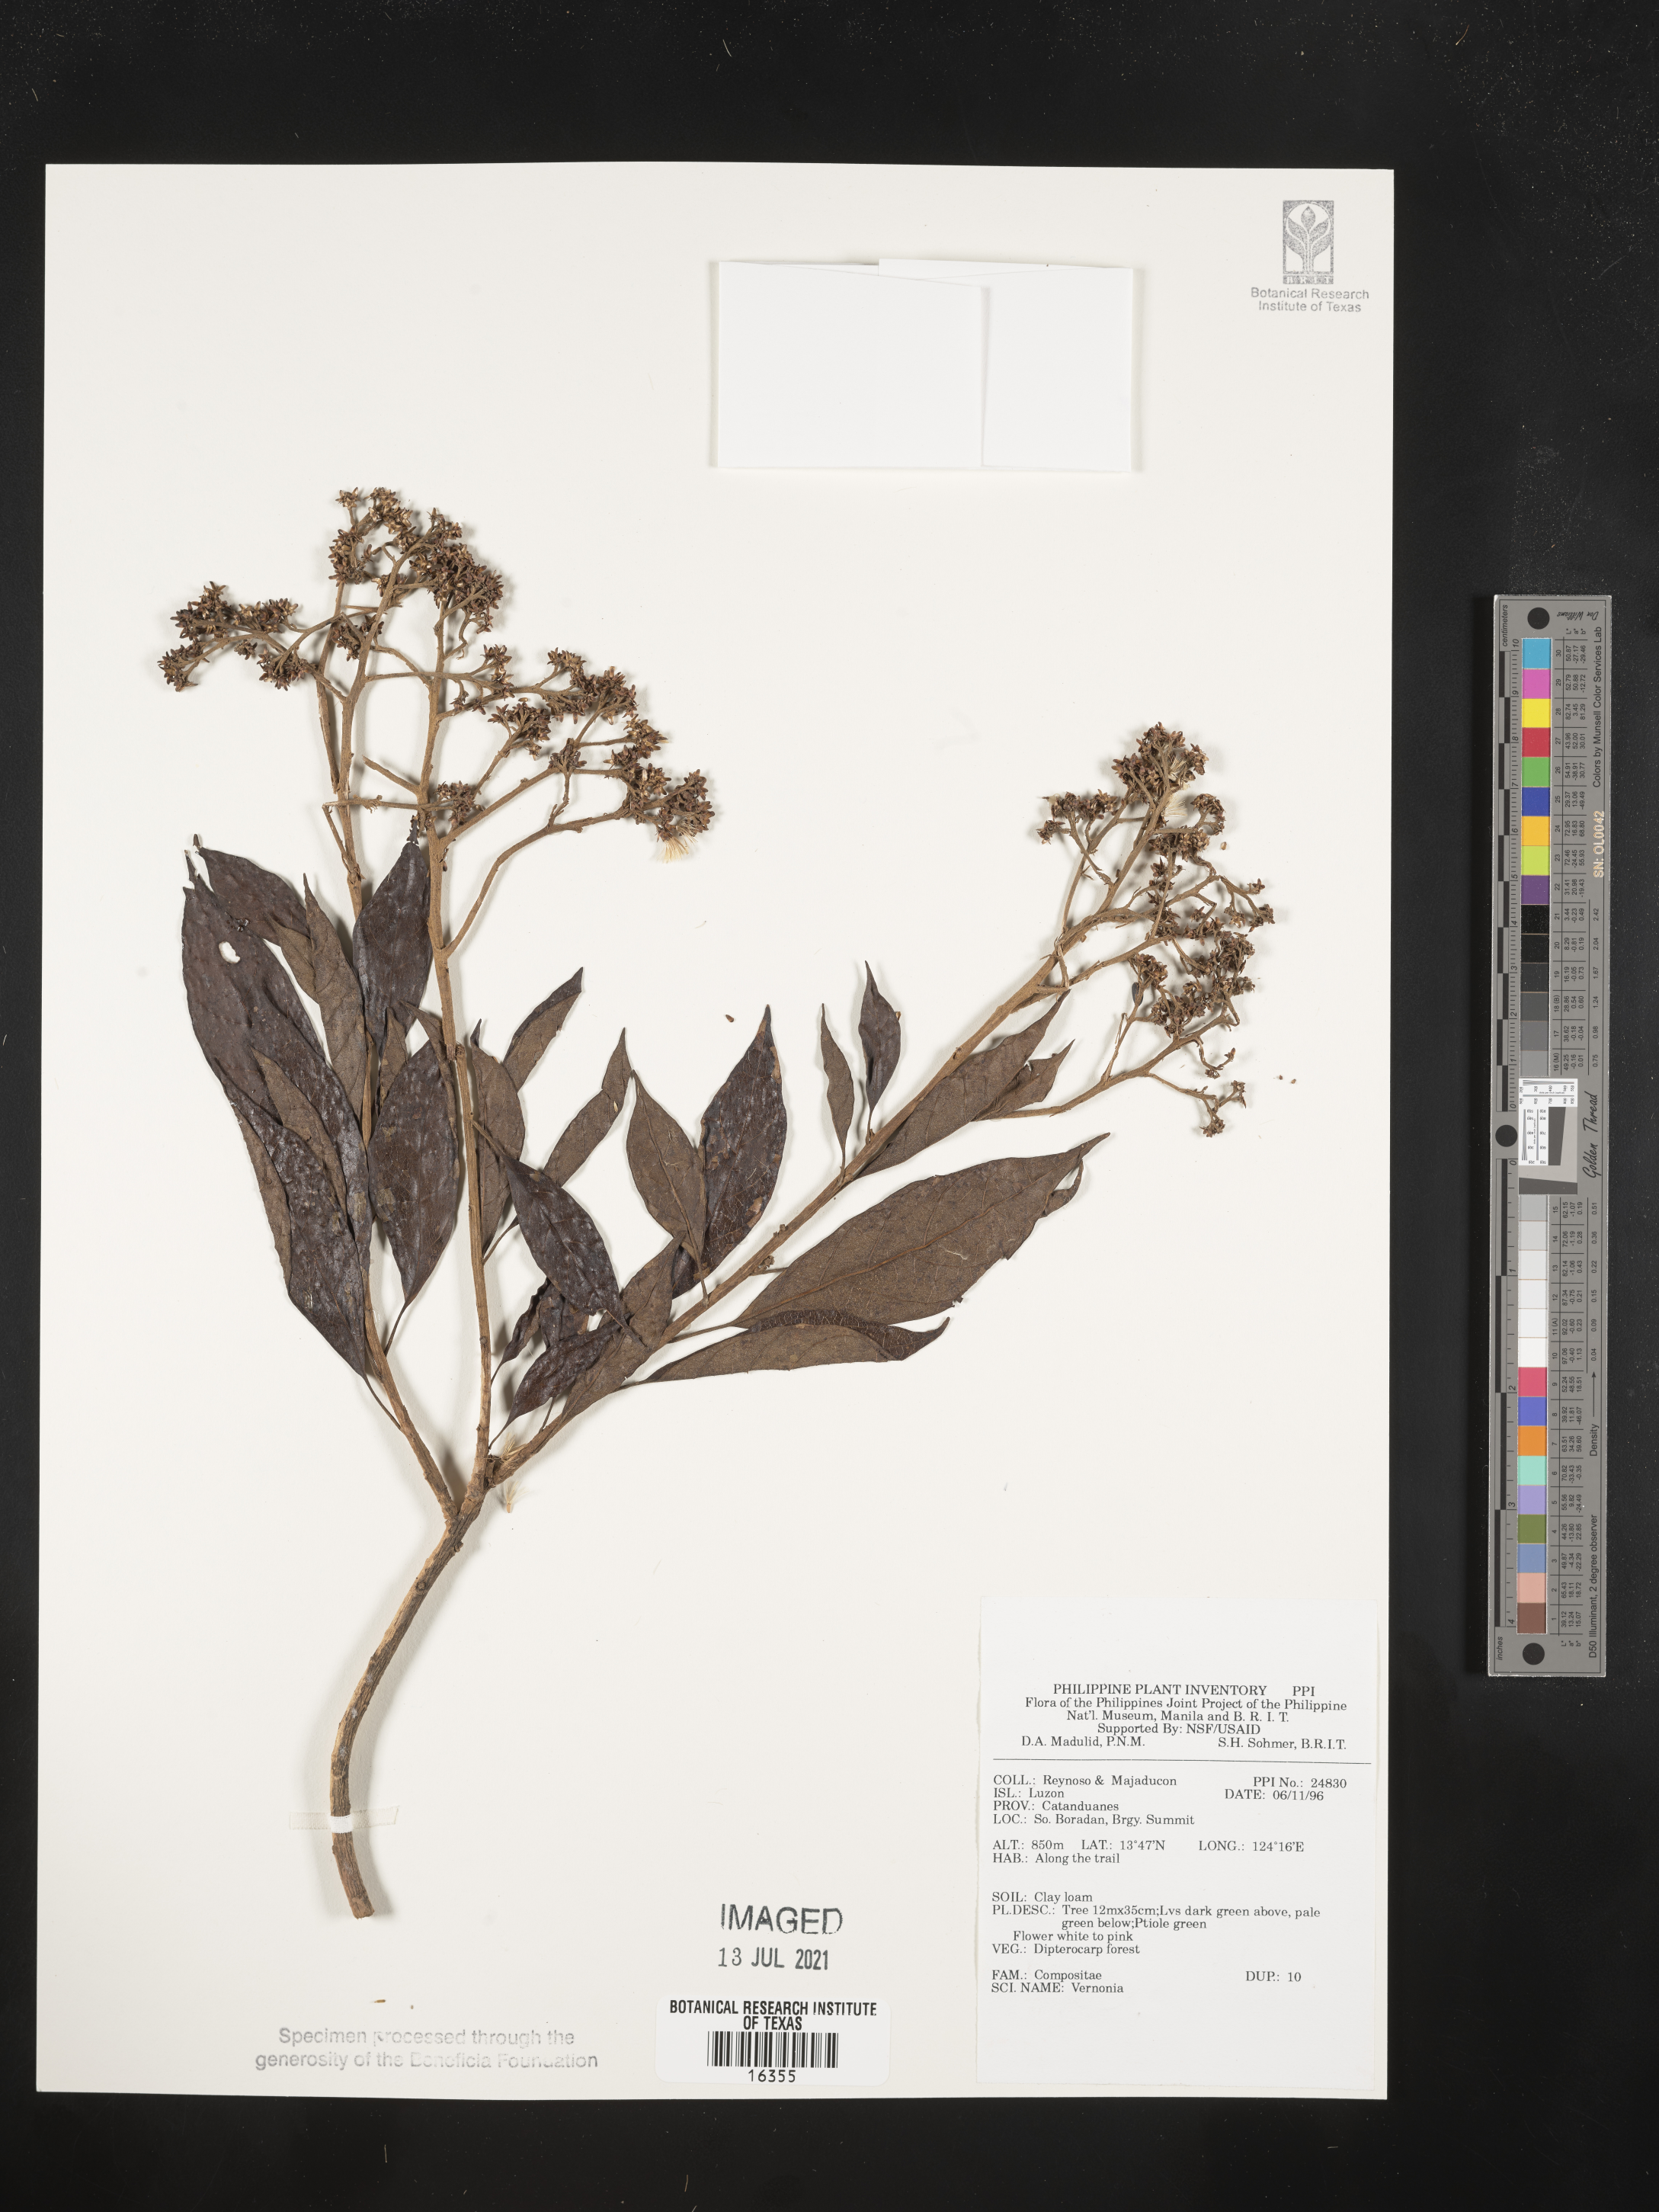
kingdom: Plantae
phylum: Tracheophyta
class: Magnoliopsida
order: Asterales
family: Asteraceae
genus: Vernonia
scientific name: Vernonia
